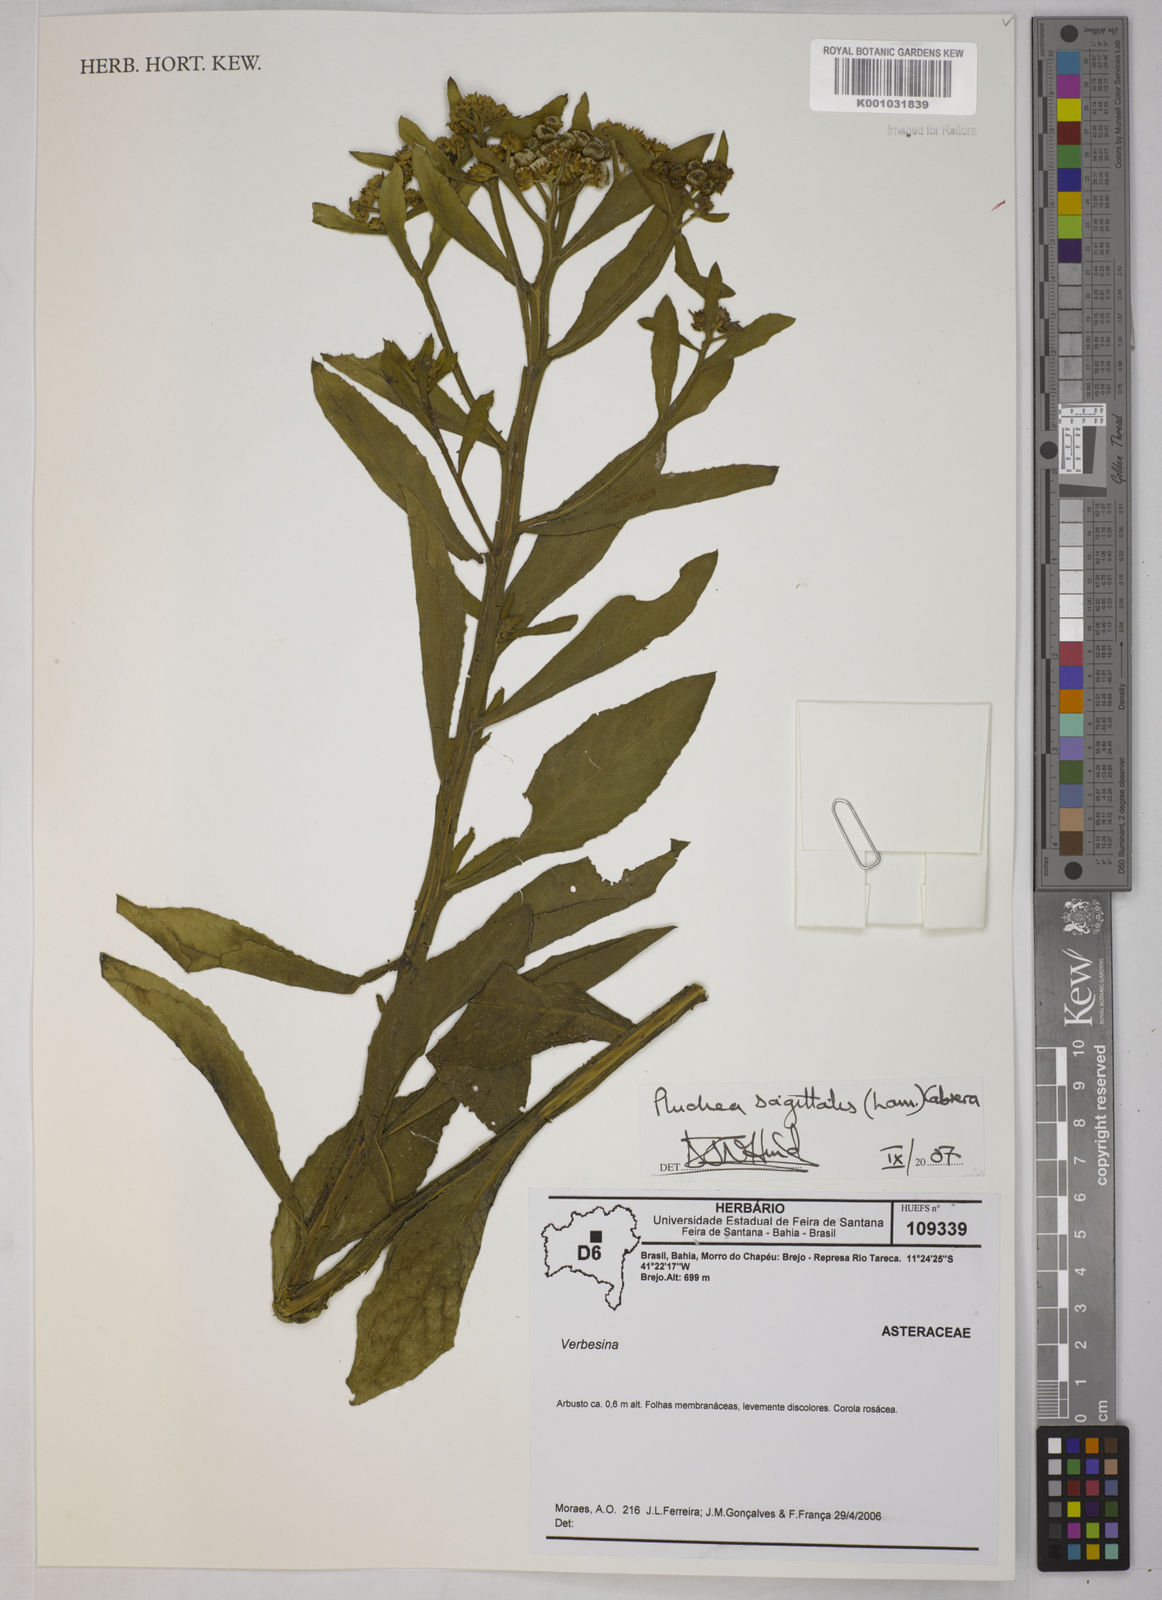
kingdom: Plantae
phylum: Tracheophyta
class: Magnoliopsida
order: Asterales
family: Asteraceae
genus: Pluchea
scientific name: Pluchea sagittalis
